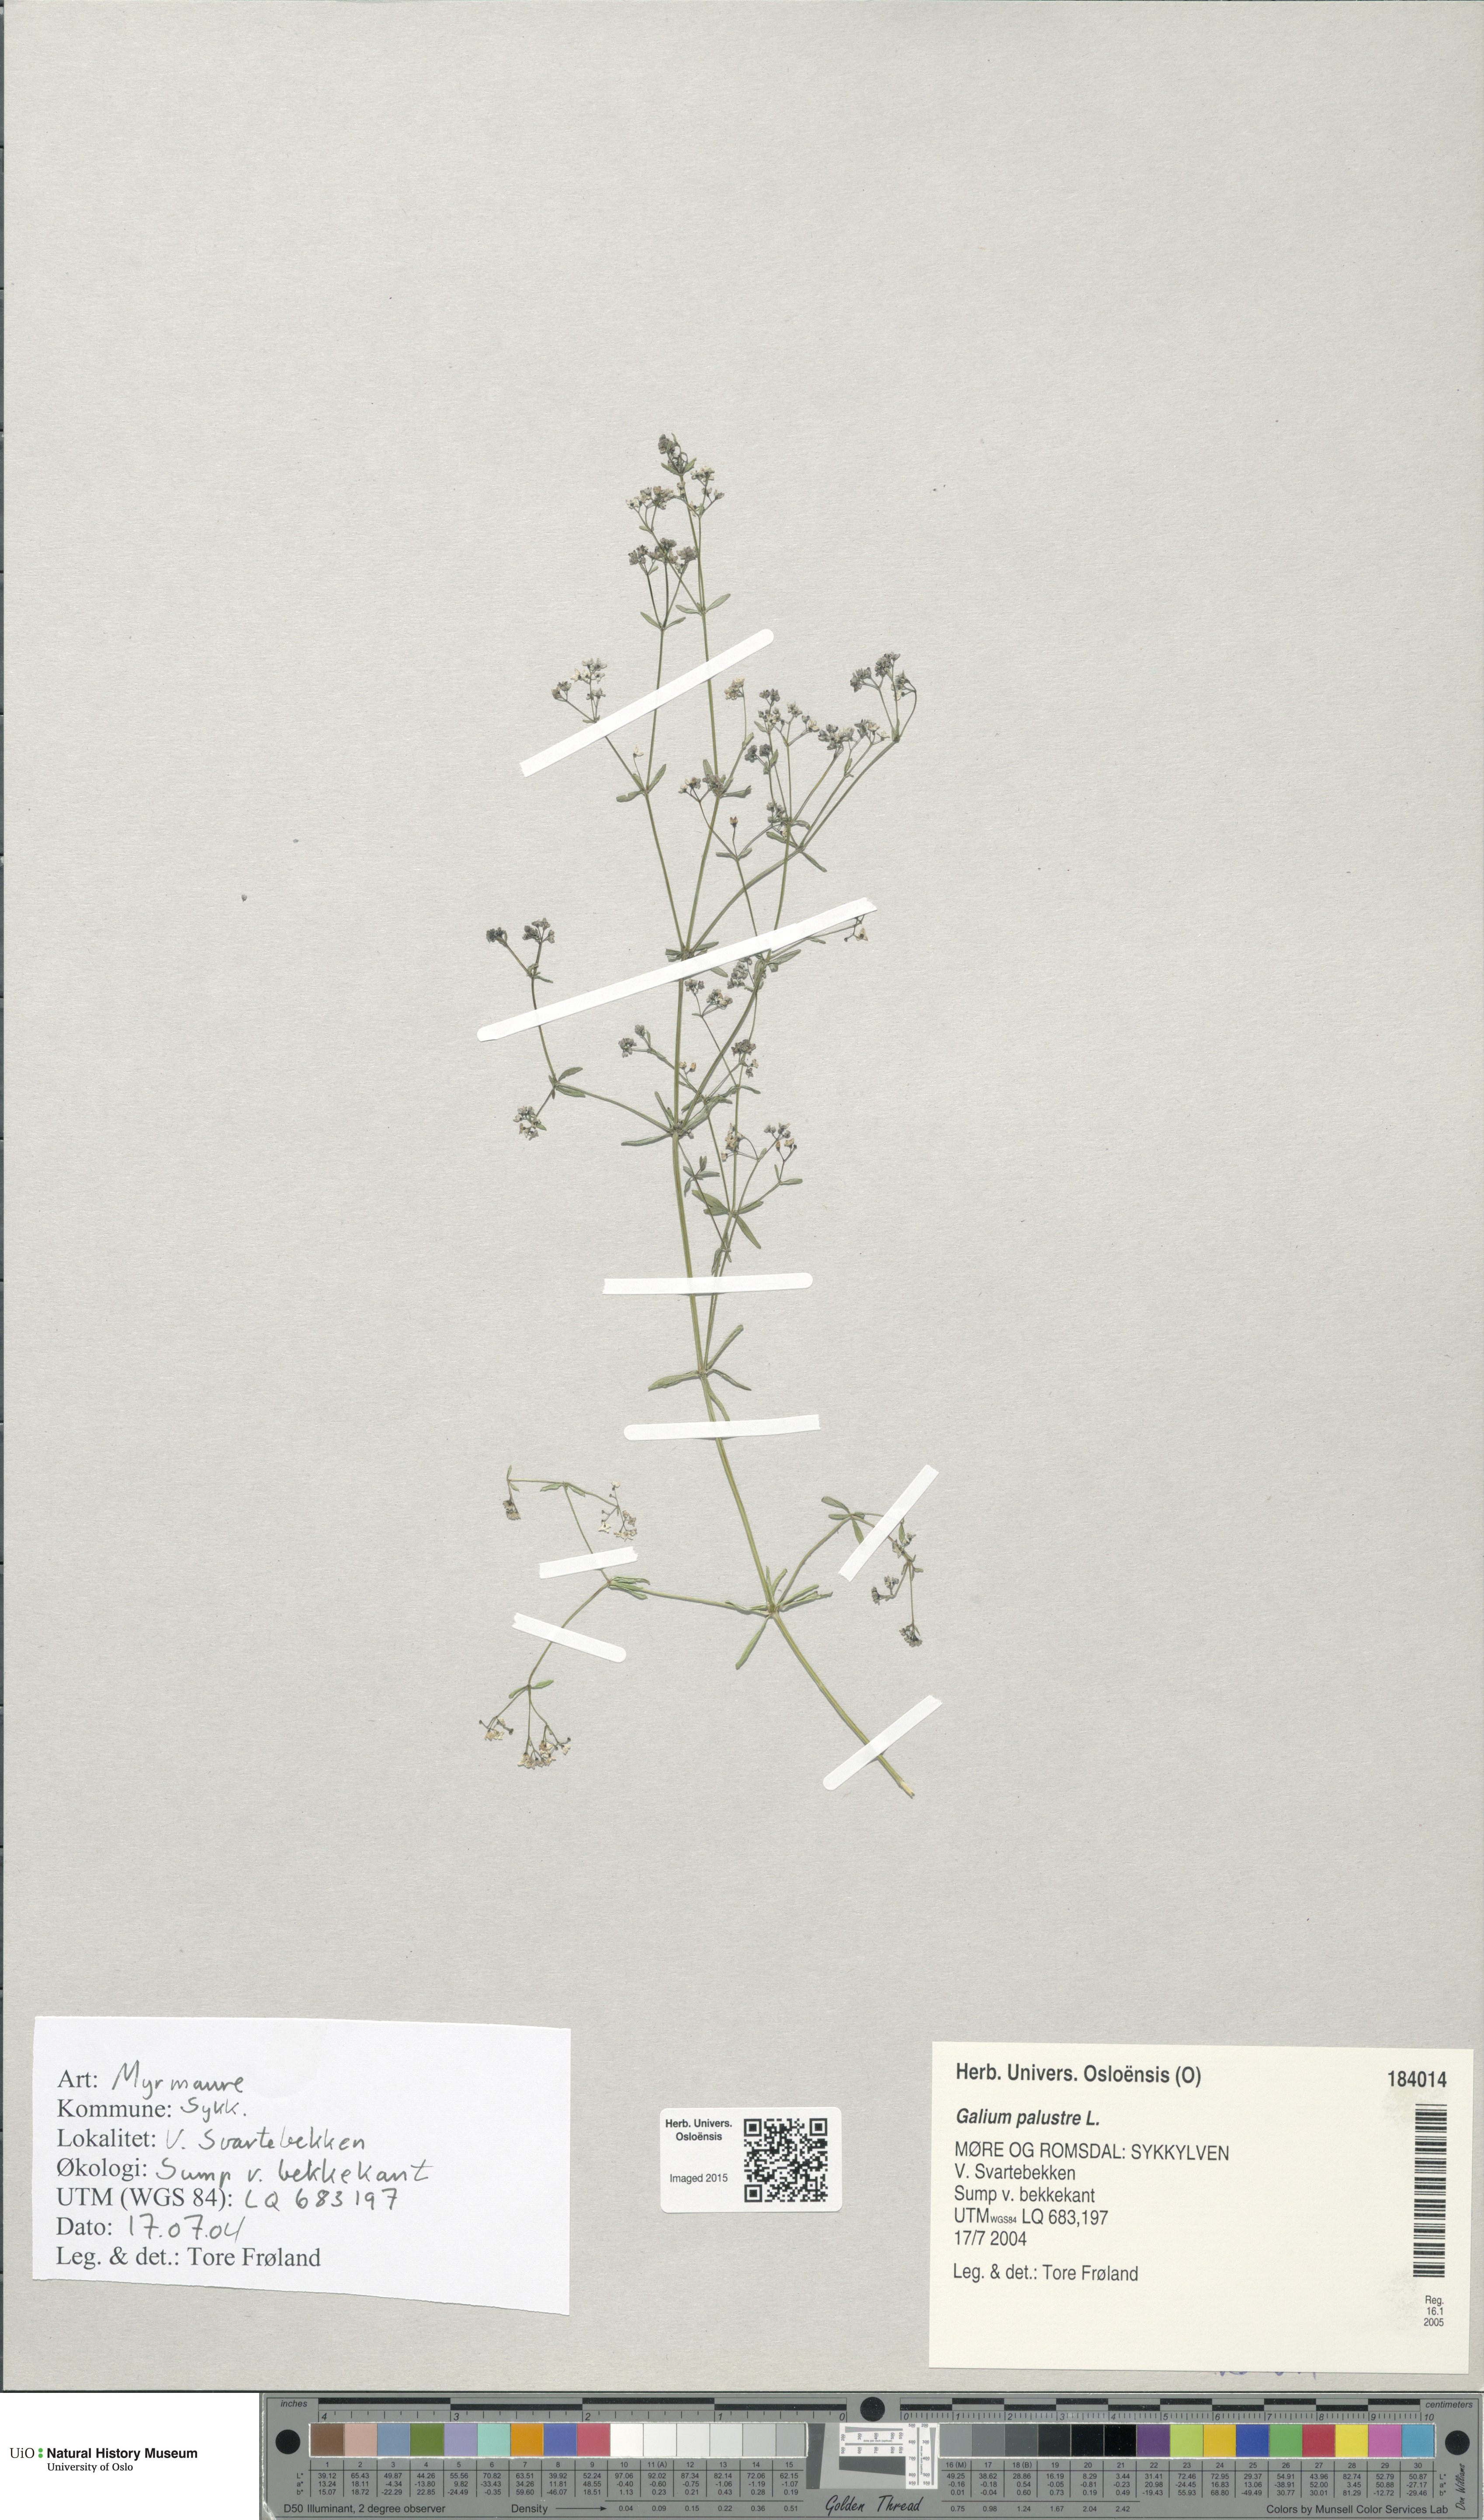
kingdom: Plantae
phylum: Tracheophyta
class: Magnoliopsida
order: Gentianales
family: Rubiaceae
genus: Galium
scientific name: Galium palustre
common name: Common marsh-bedstraw
